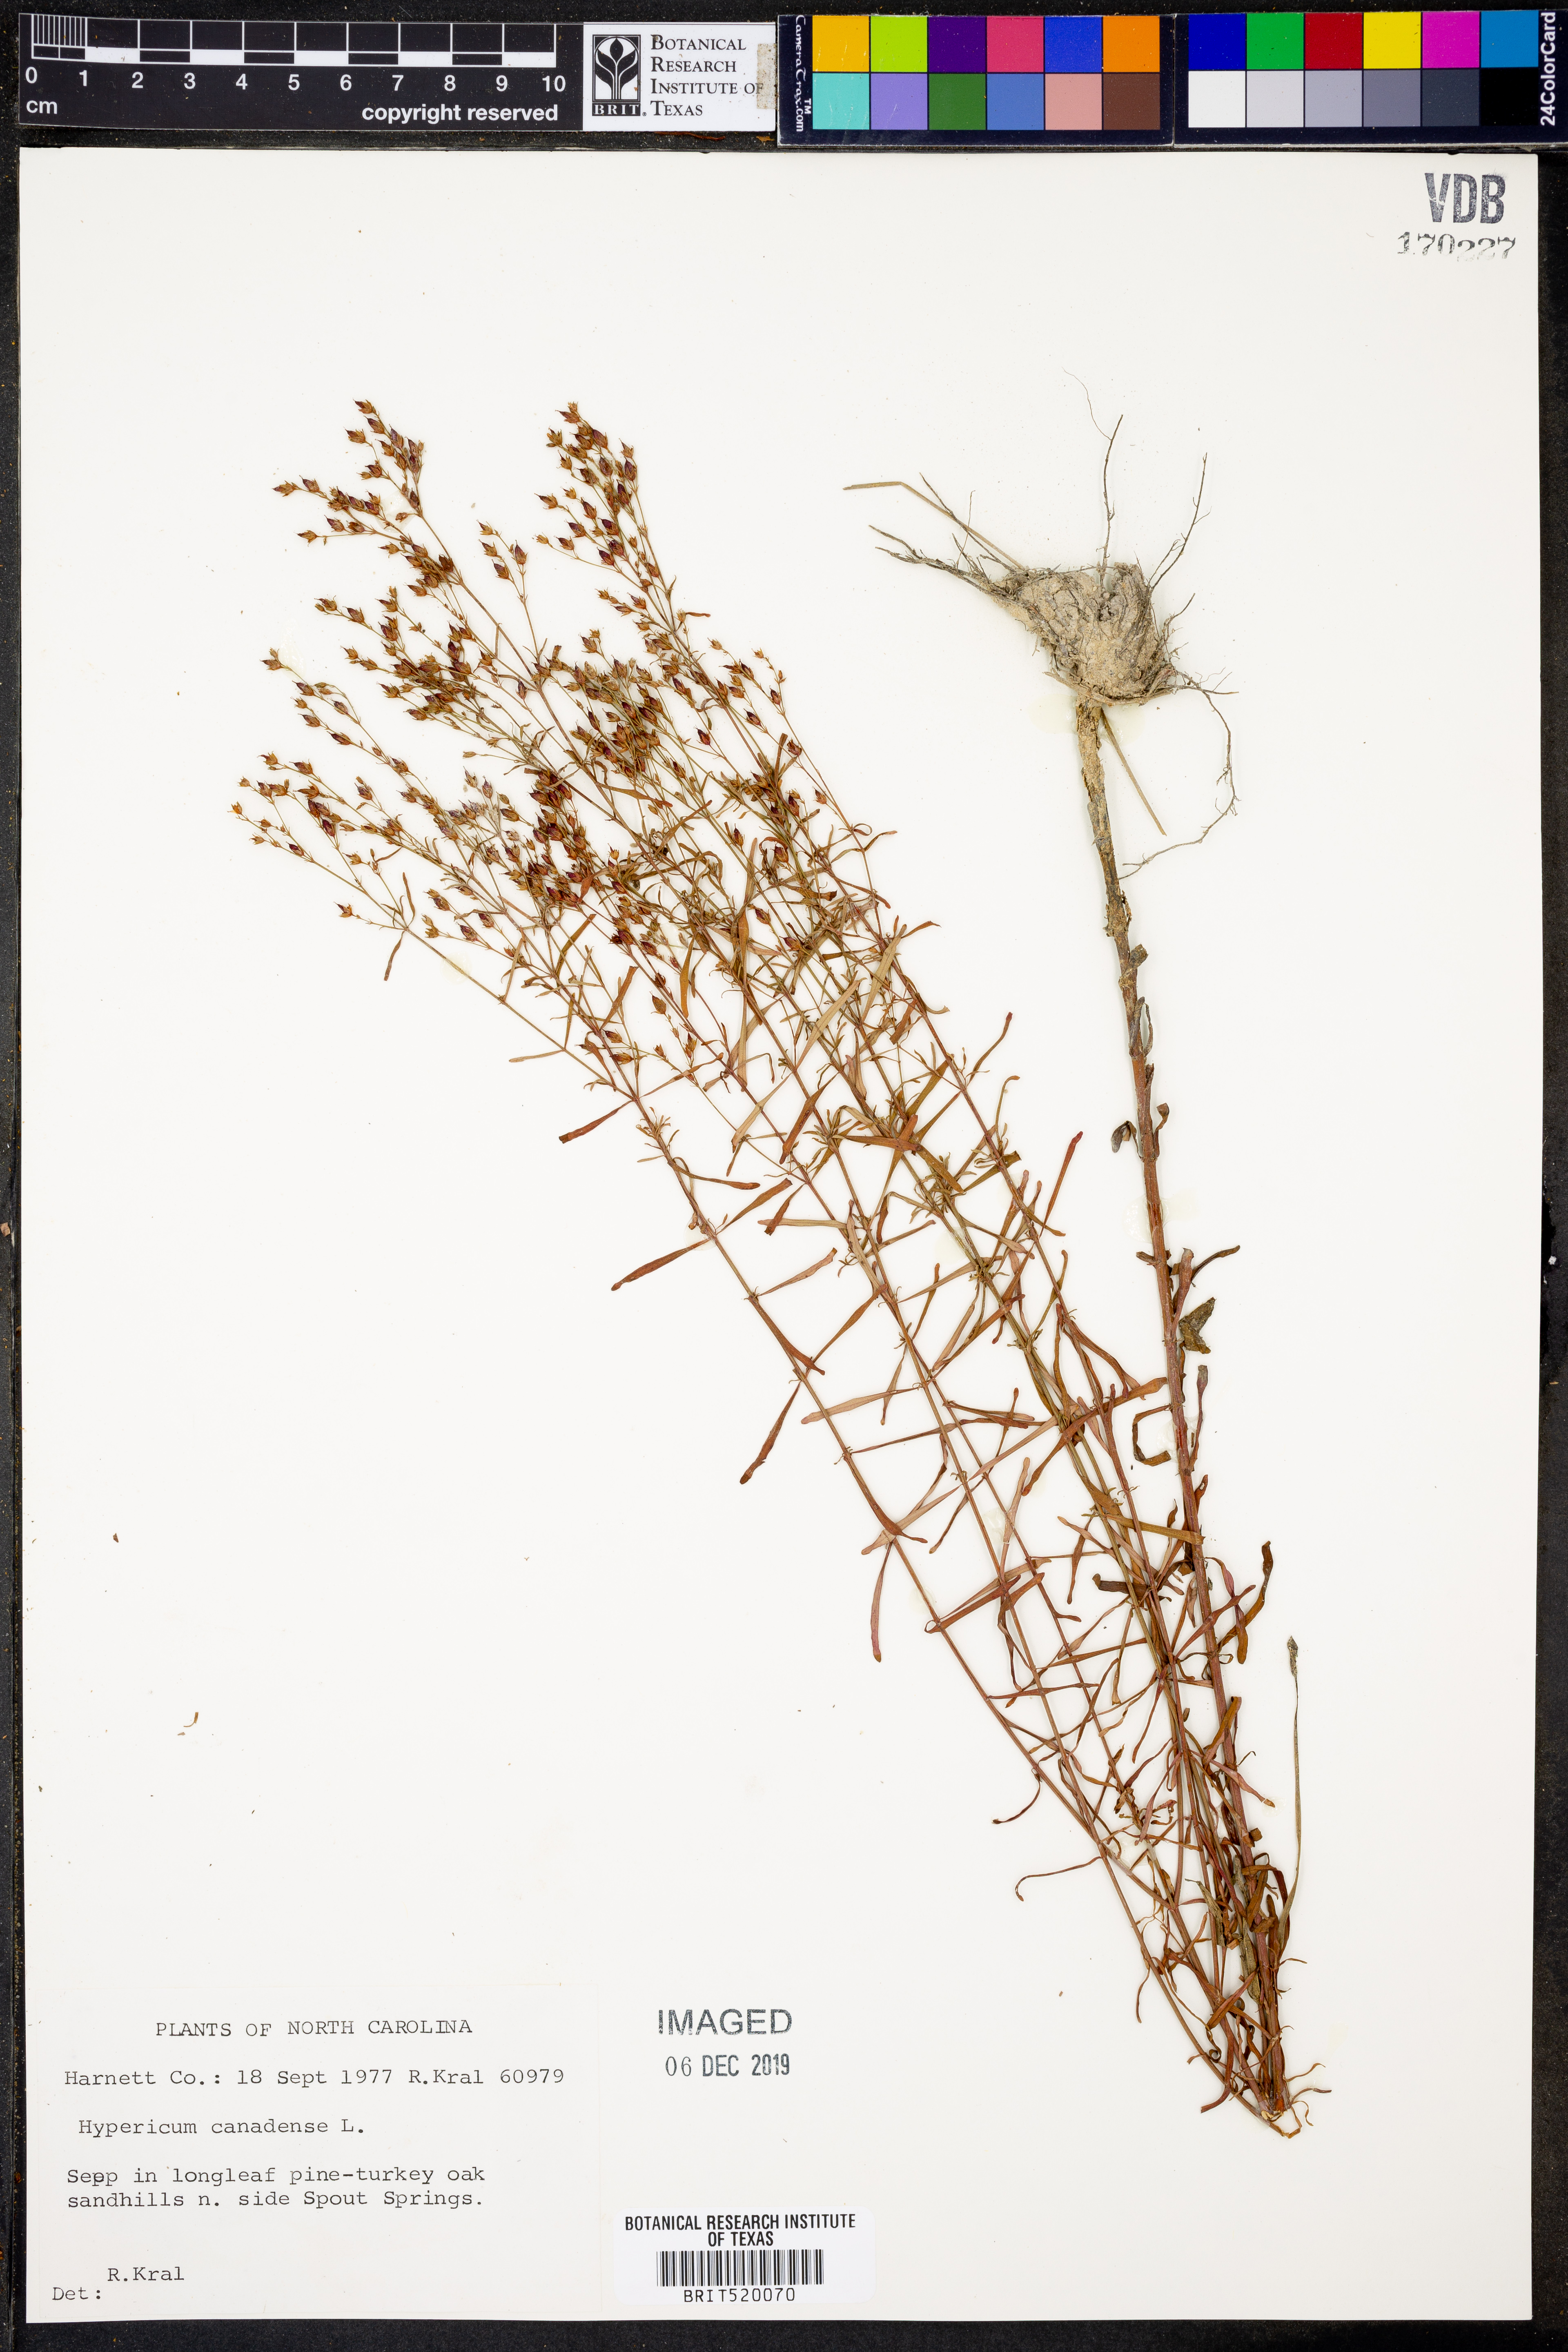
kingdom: Plantae
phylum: Tracheophyta
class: Magnoliopsida
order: Malpighiales
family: Hypericaceae
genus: Hypericum
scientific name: Hypericum canadense
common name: Irish st. john's-wort
